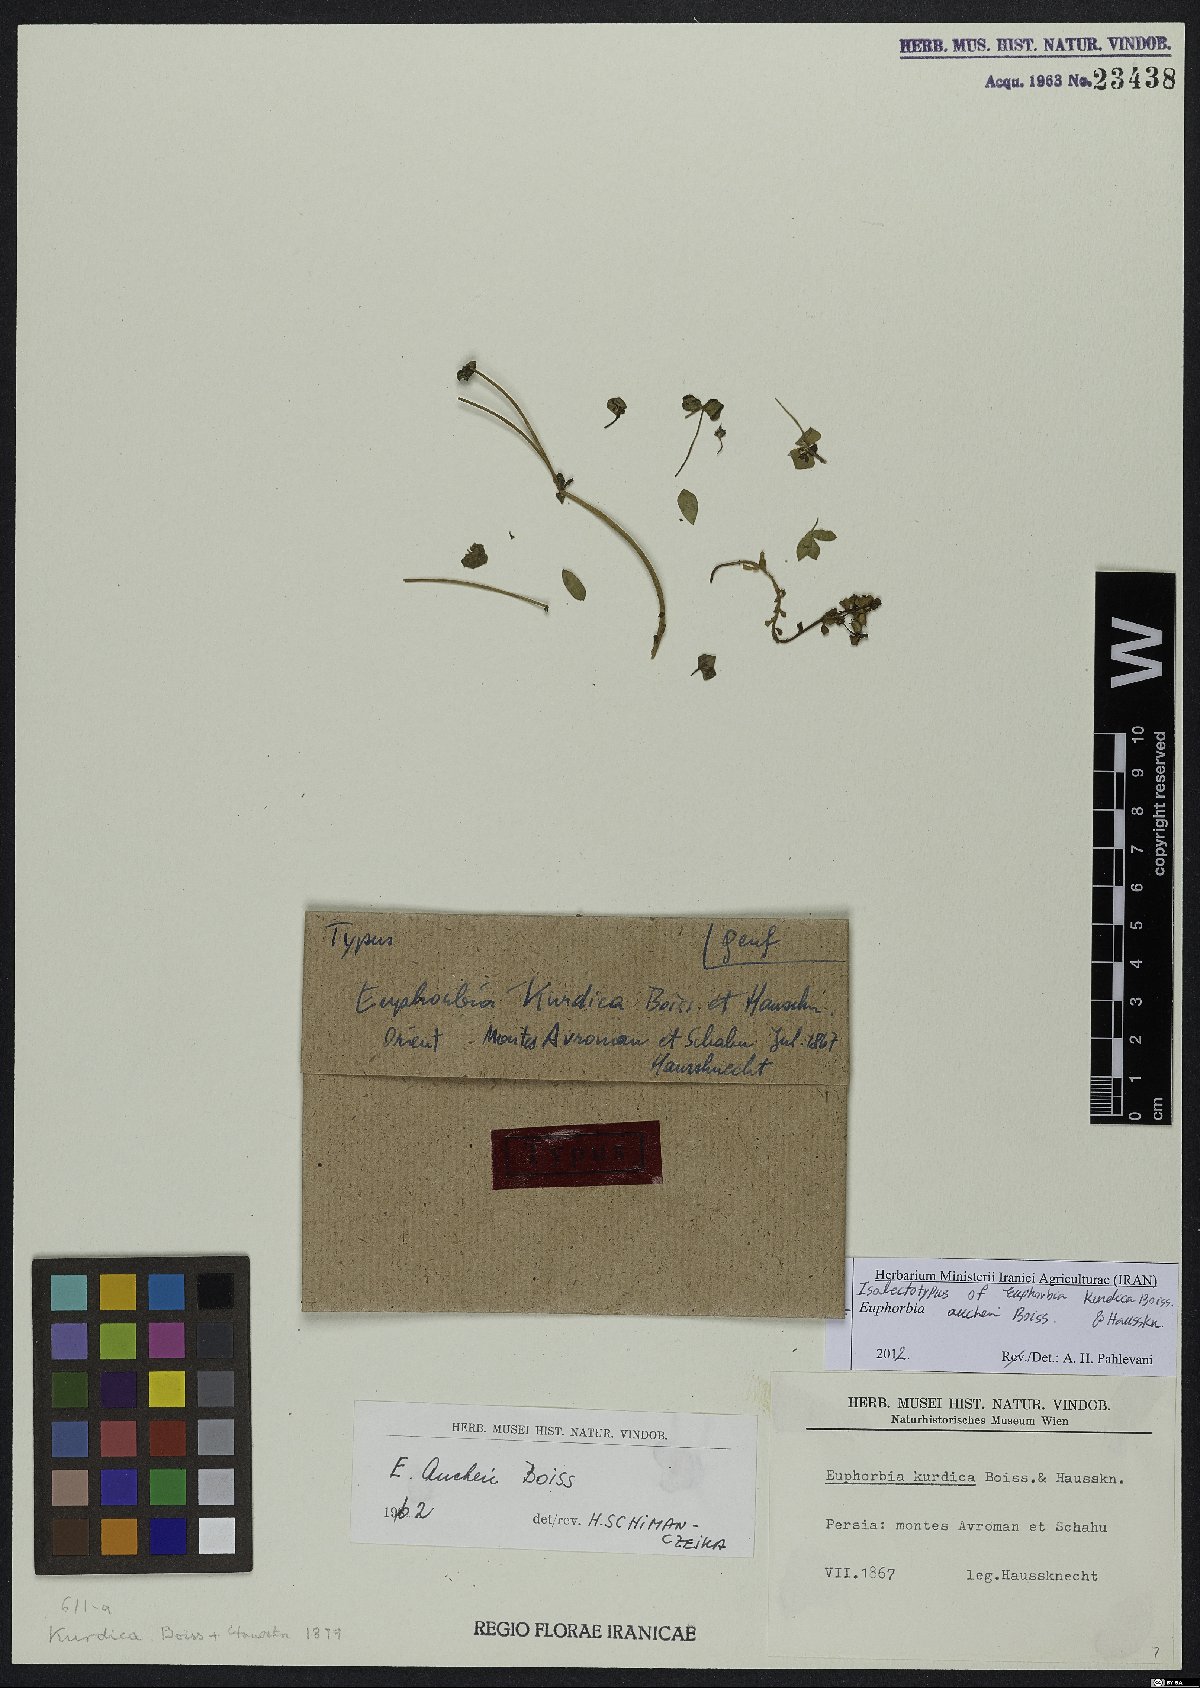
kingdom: Plantae
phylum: Tracheophyta
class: Magnoliopsida
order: Malpighiales
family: Euphorbiaceae
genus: Euphorbia
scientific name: Euphorbia aucheri
